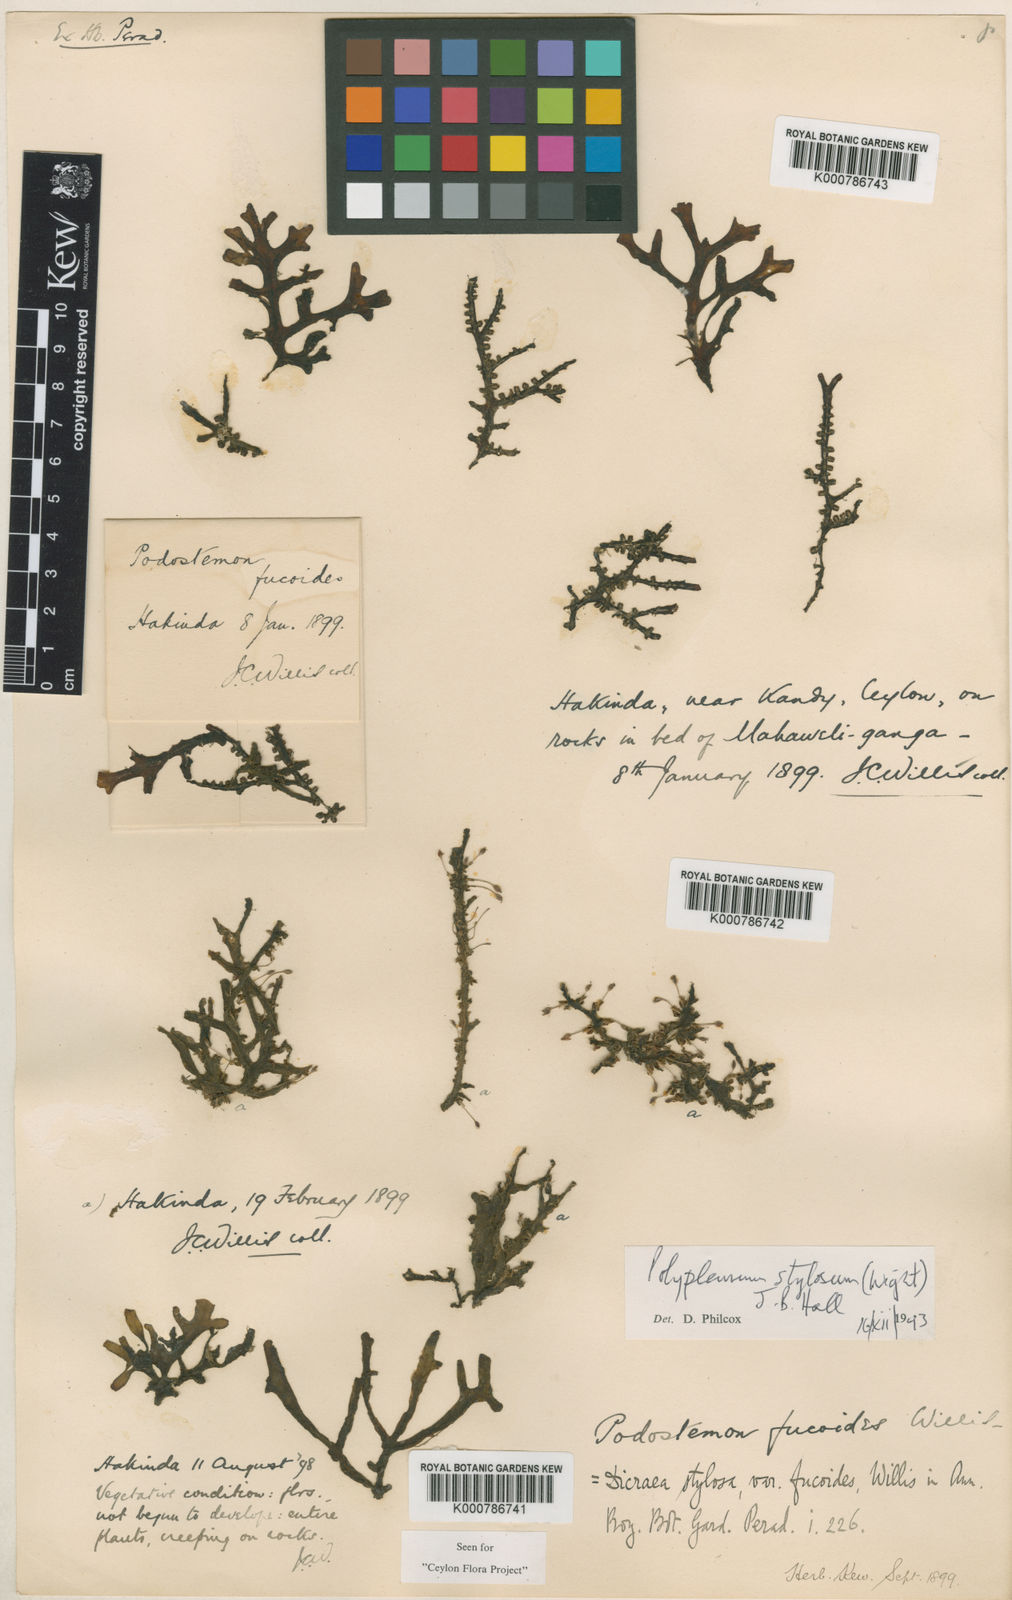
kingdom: Plantae
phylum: Tracheophyta
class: Magnoliopsida
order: Malpighiales
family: Podostemaceae
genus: Polypleurum
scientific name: Polypleurum wallichii
